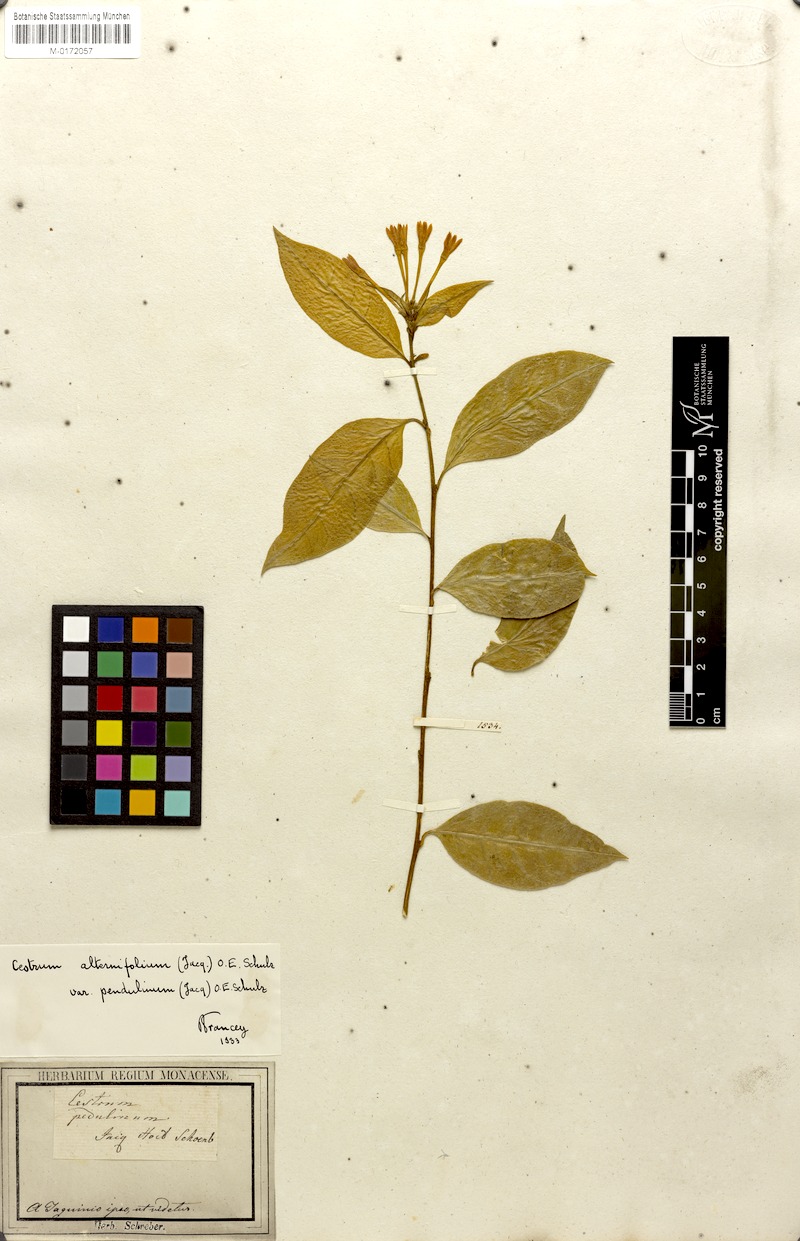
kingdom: Plantae
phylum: Tracheophyta
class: Magnoliopsida
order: Solanales
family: Solanaceae
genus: Cestrum
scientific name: Cestrum alternifolium
